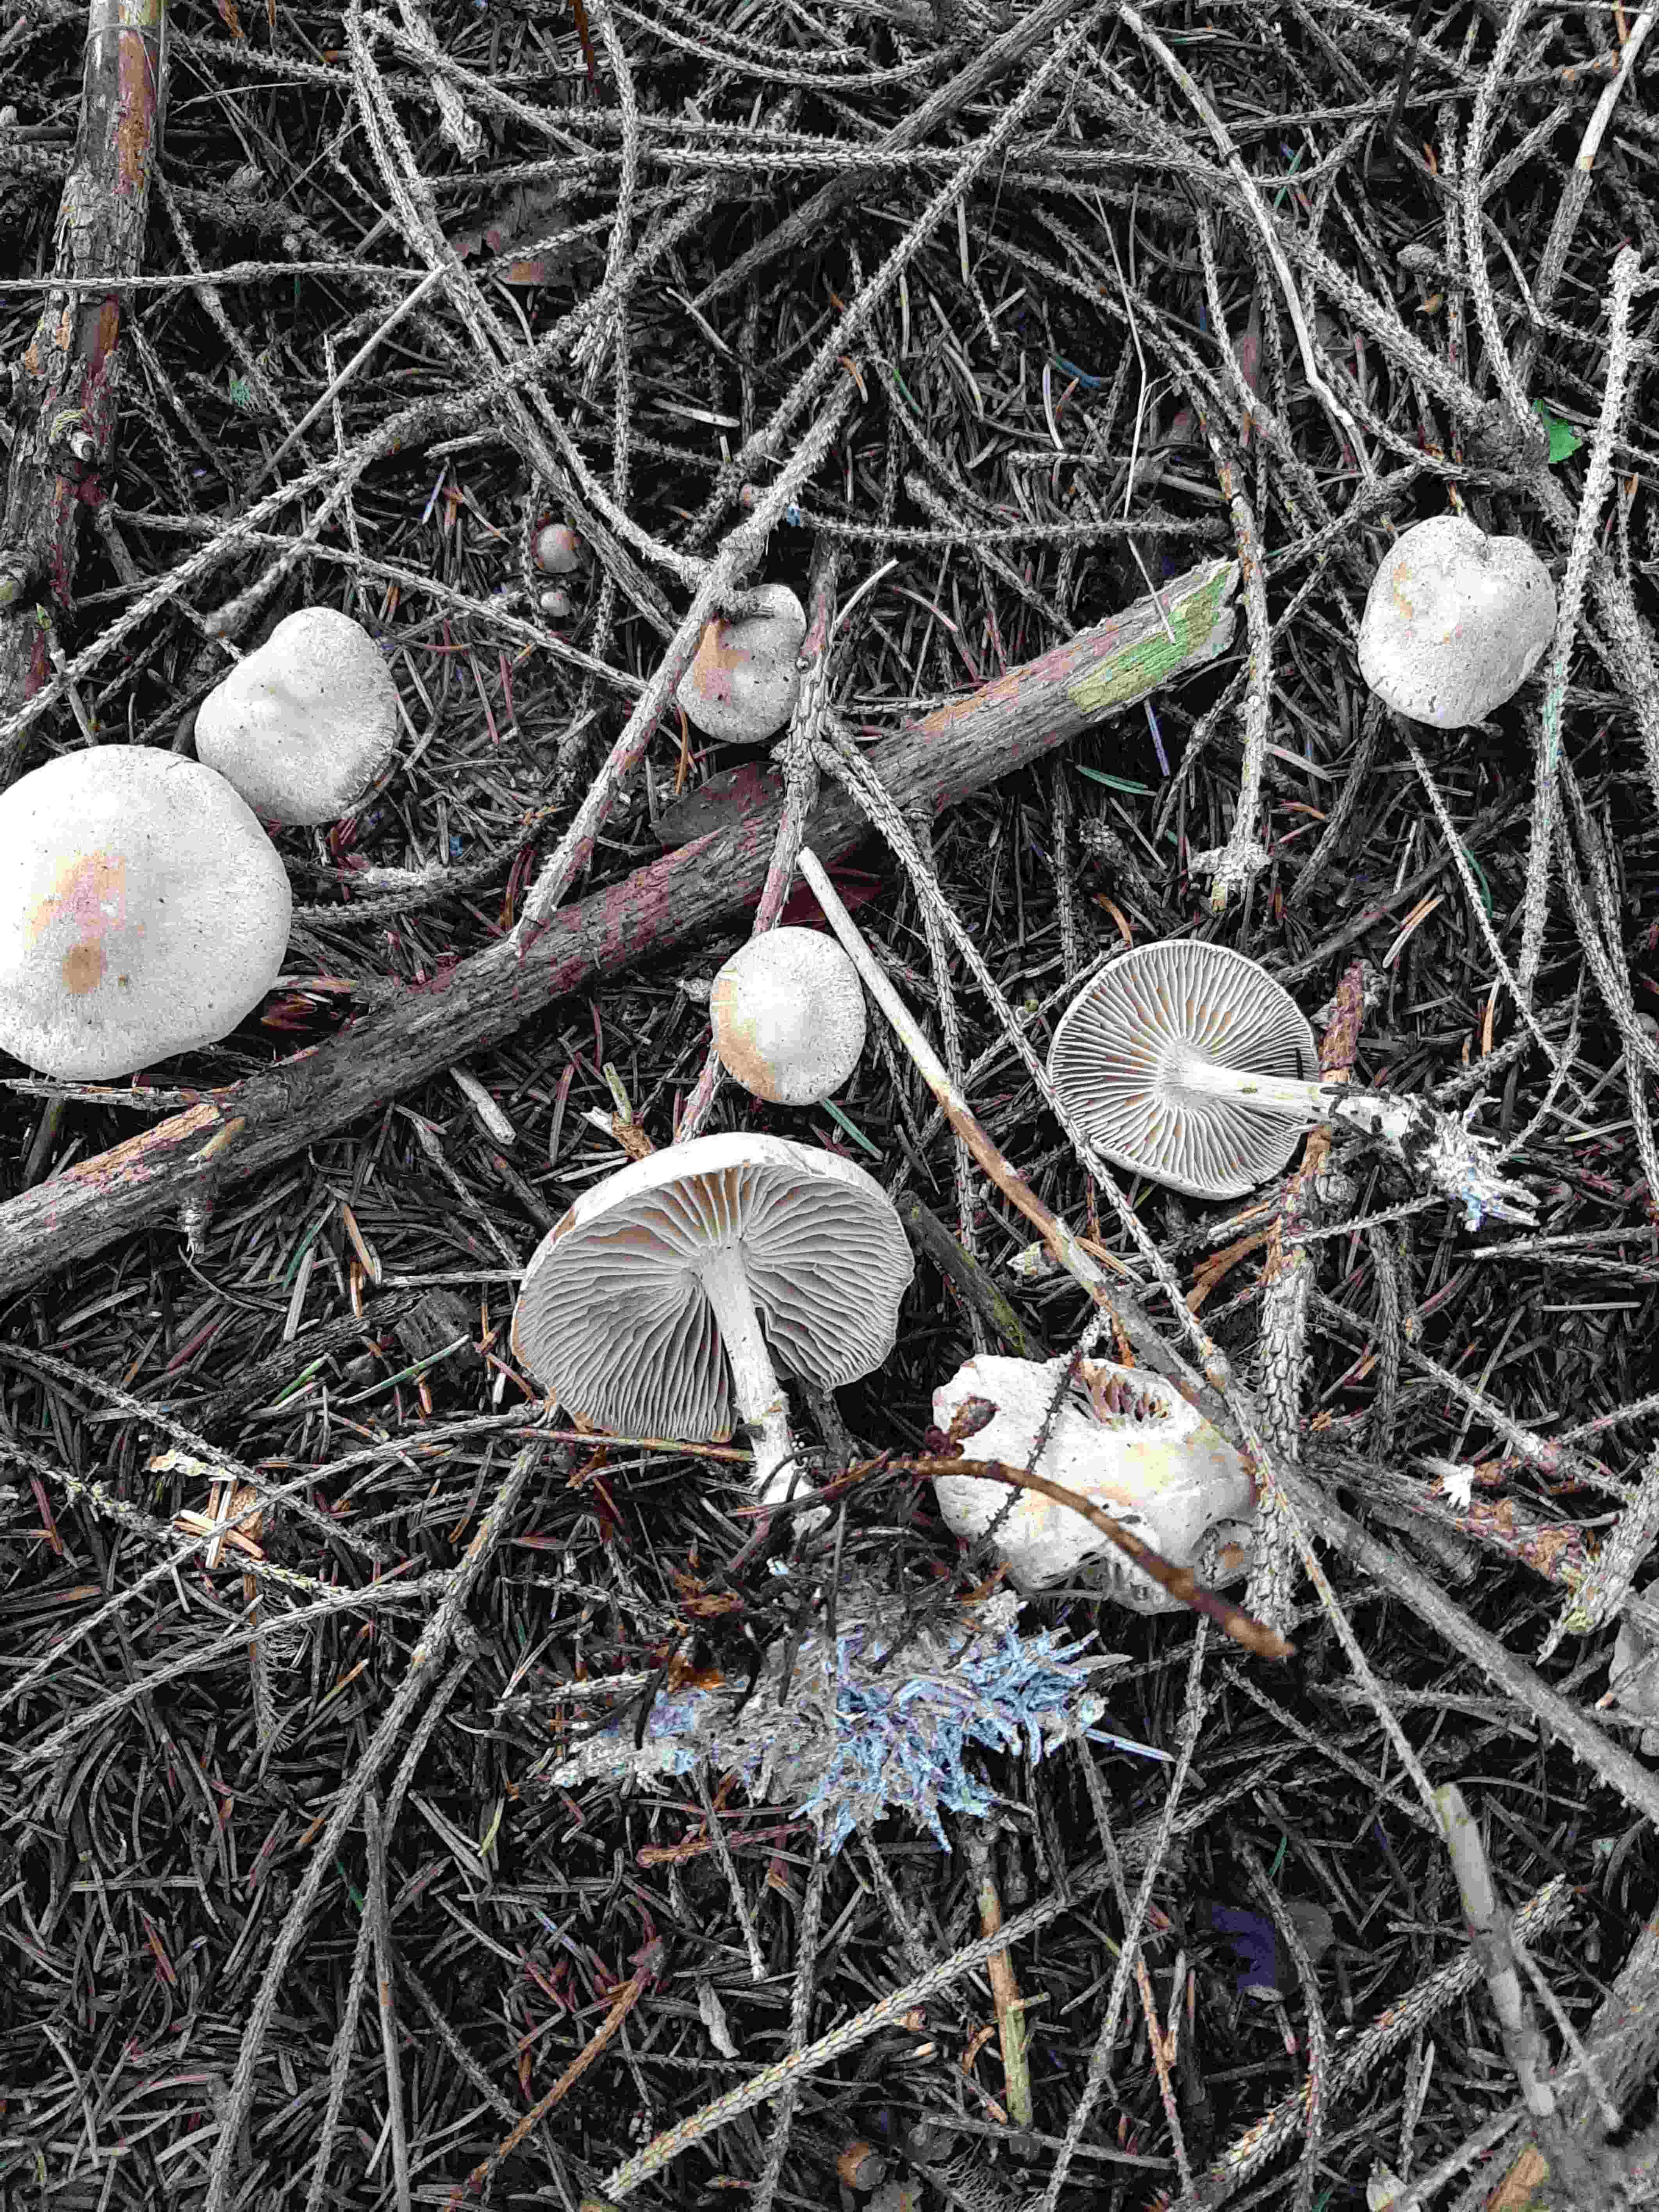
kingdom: Fungi
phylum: Basidiomycota
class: Agaricomycetes
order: Agaricales
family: Omphalotaceae
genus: Collybiopsis
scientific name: Collybiopsis peronata
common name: bestøvlet fladhat
